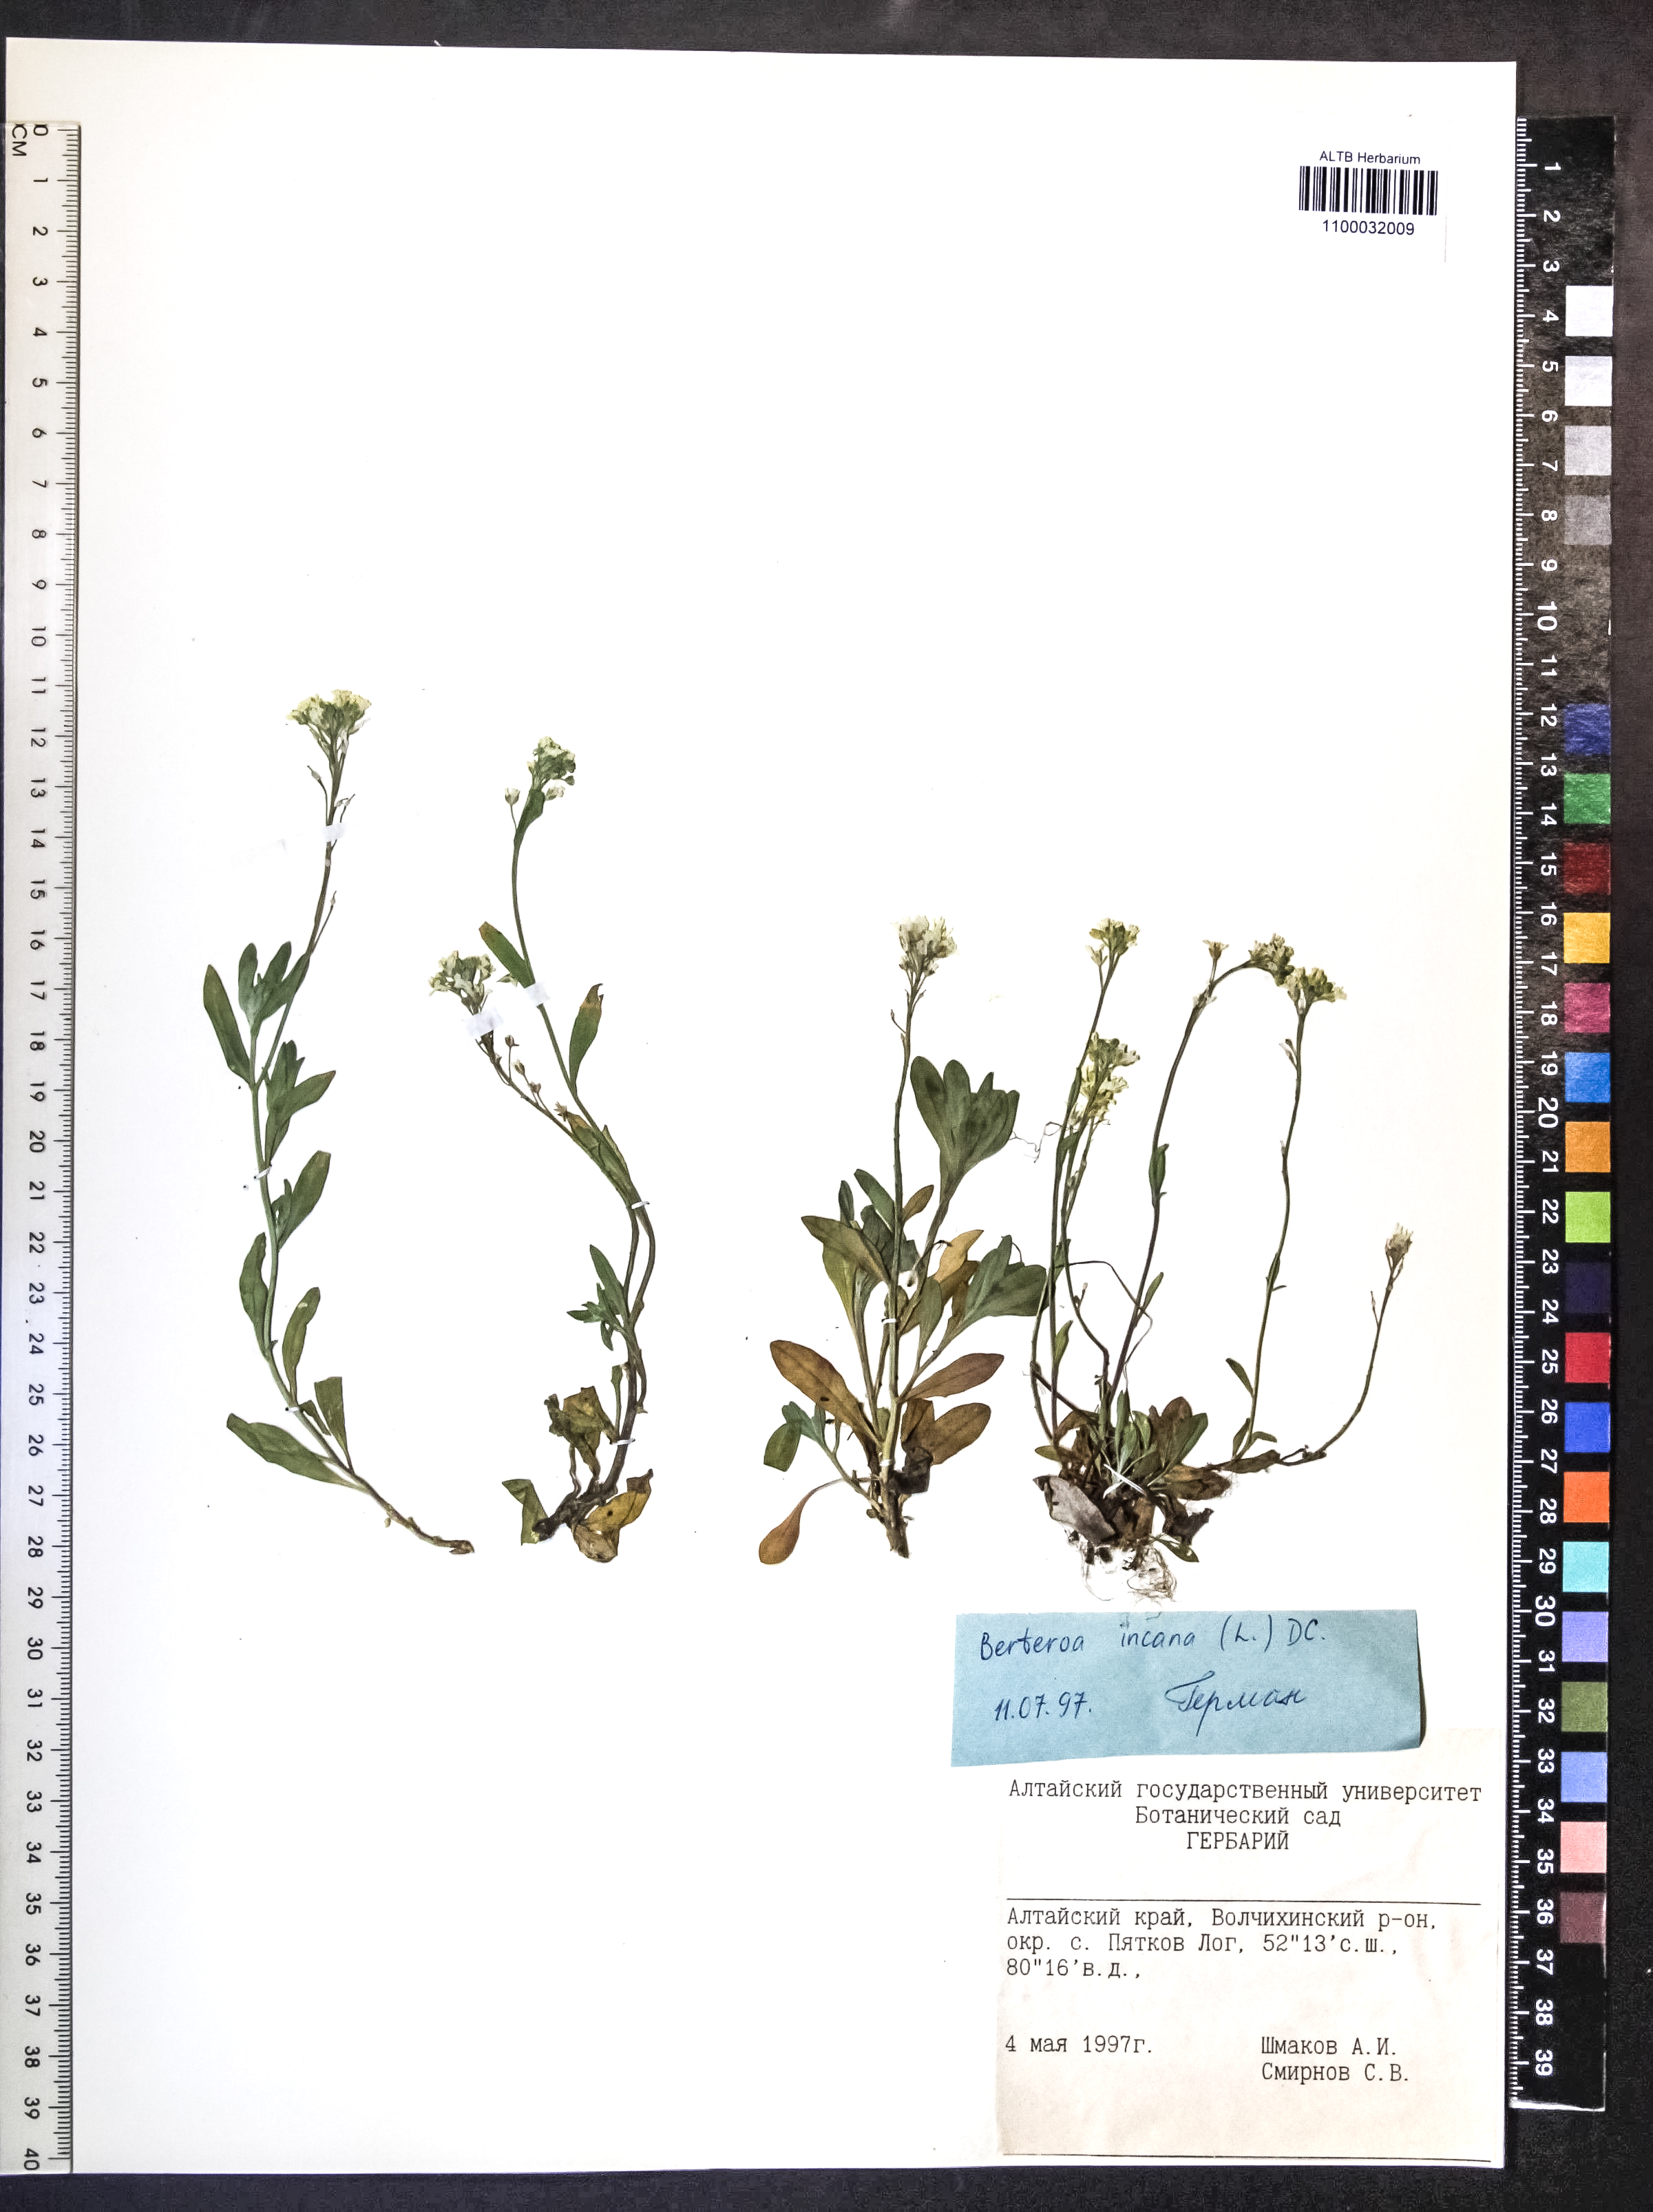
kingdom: Plantae
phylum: Tracheophyta
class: Magnoliopsida
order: Brassicales
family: Brassicaceae
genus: Berteroa
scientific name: Berteroa incana
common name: Hoary alison
